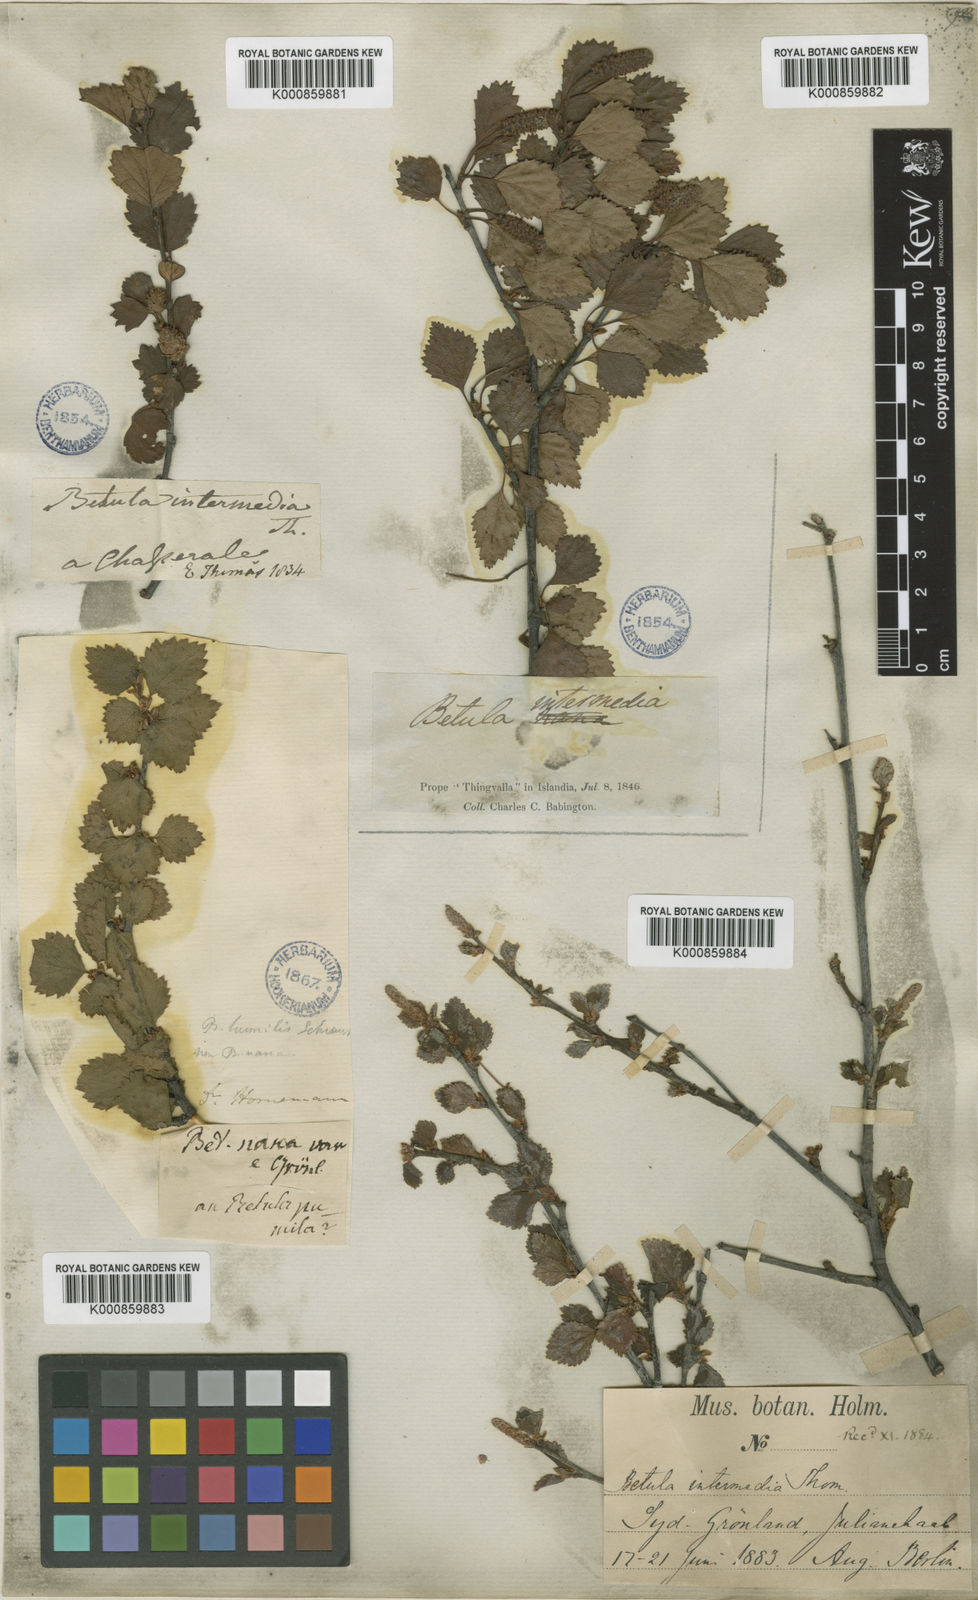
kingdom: Plantae
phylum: Tracheophyta
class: Magnoliopsida
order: Fagales
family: Betulaceae
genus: Betula
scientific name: Betula
